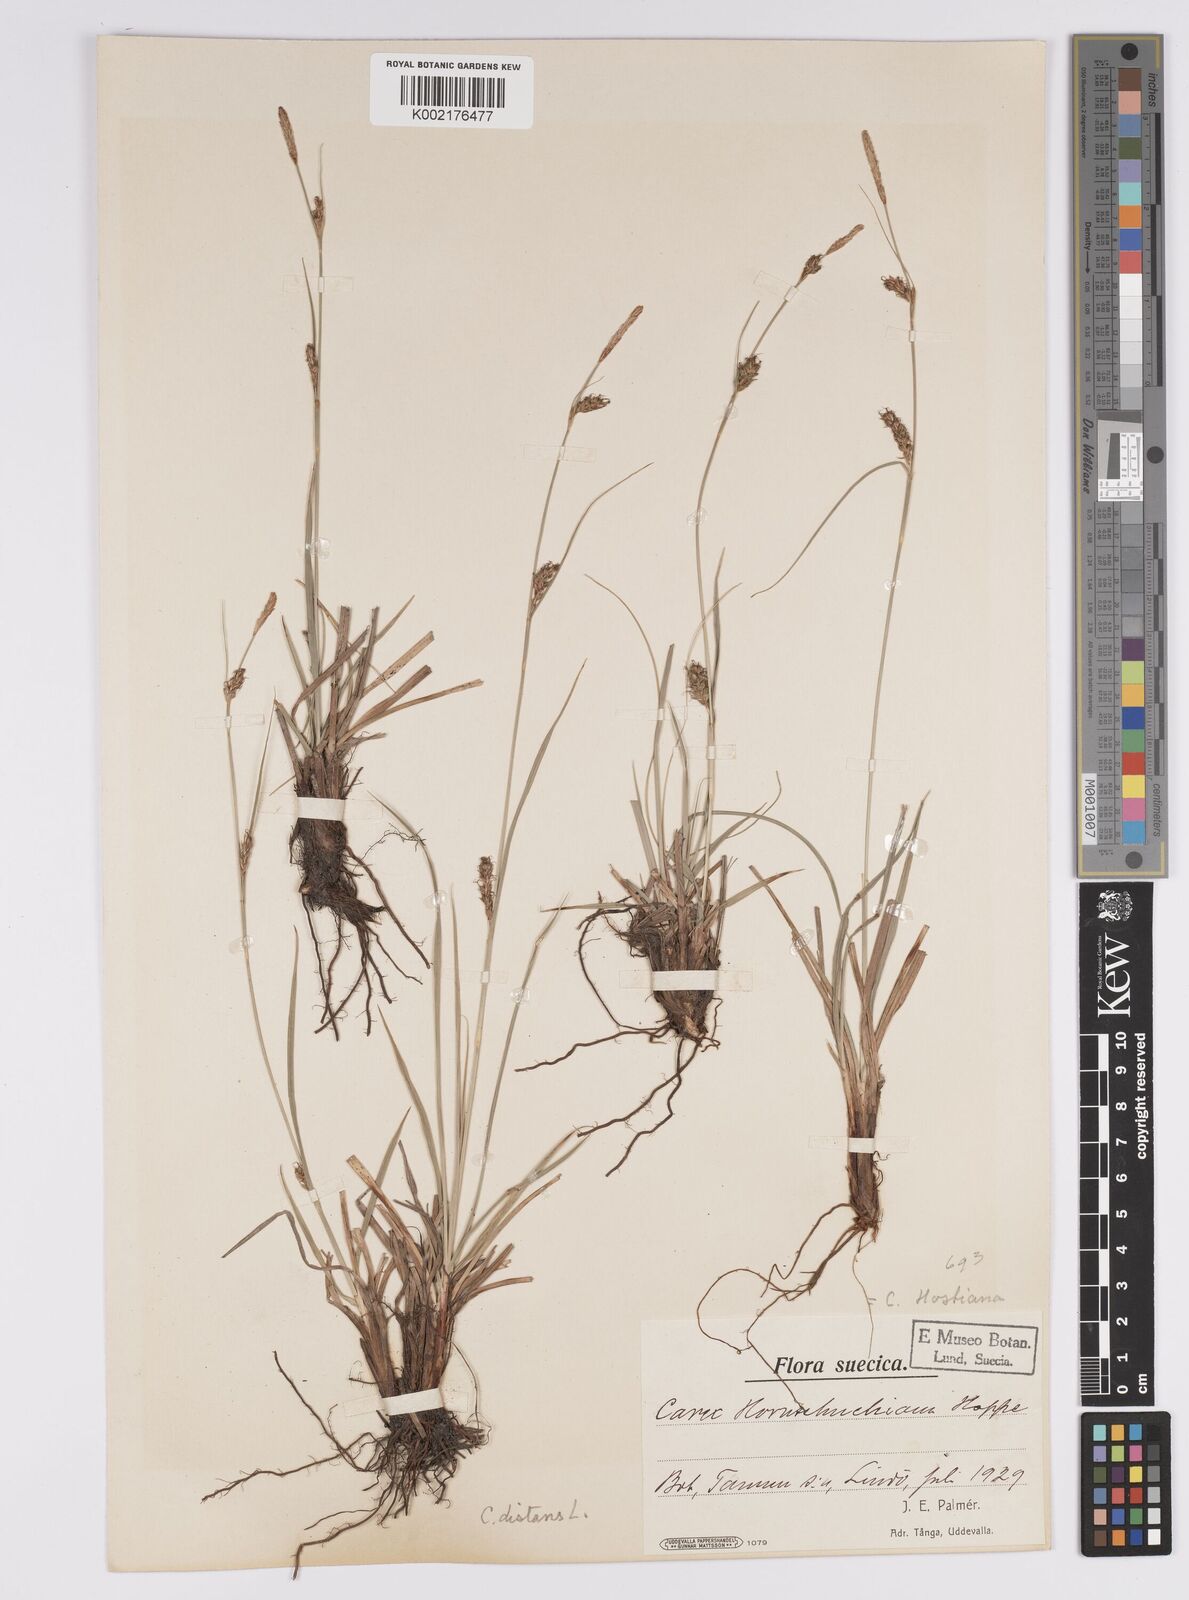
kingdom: Plantae
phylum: Tracheophyta
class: Liliopsida
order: Poales
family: Cyperaceae
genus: Carex
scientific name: Carex distans
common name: Distant sedge
